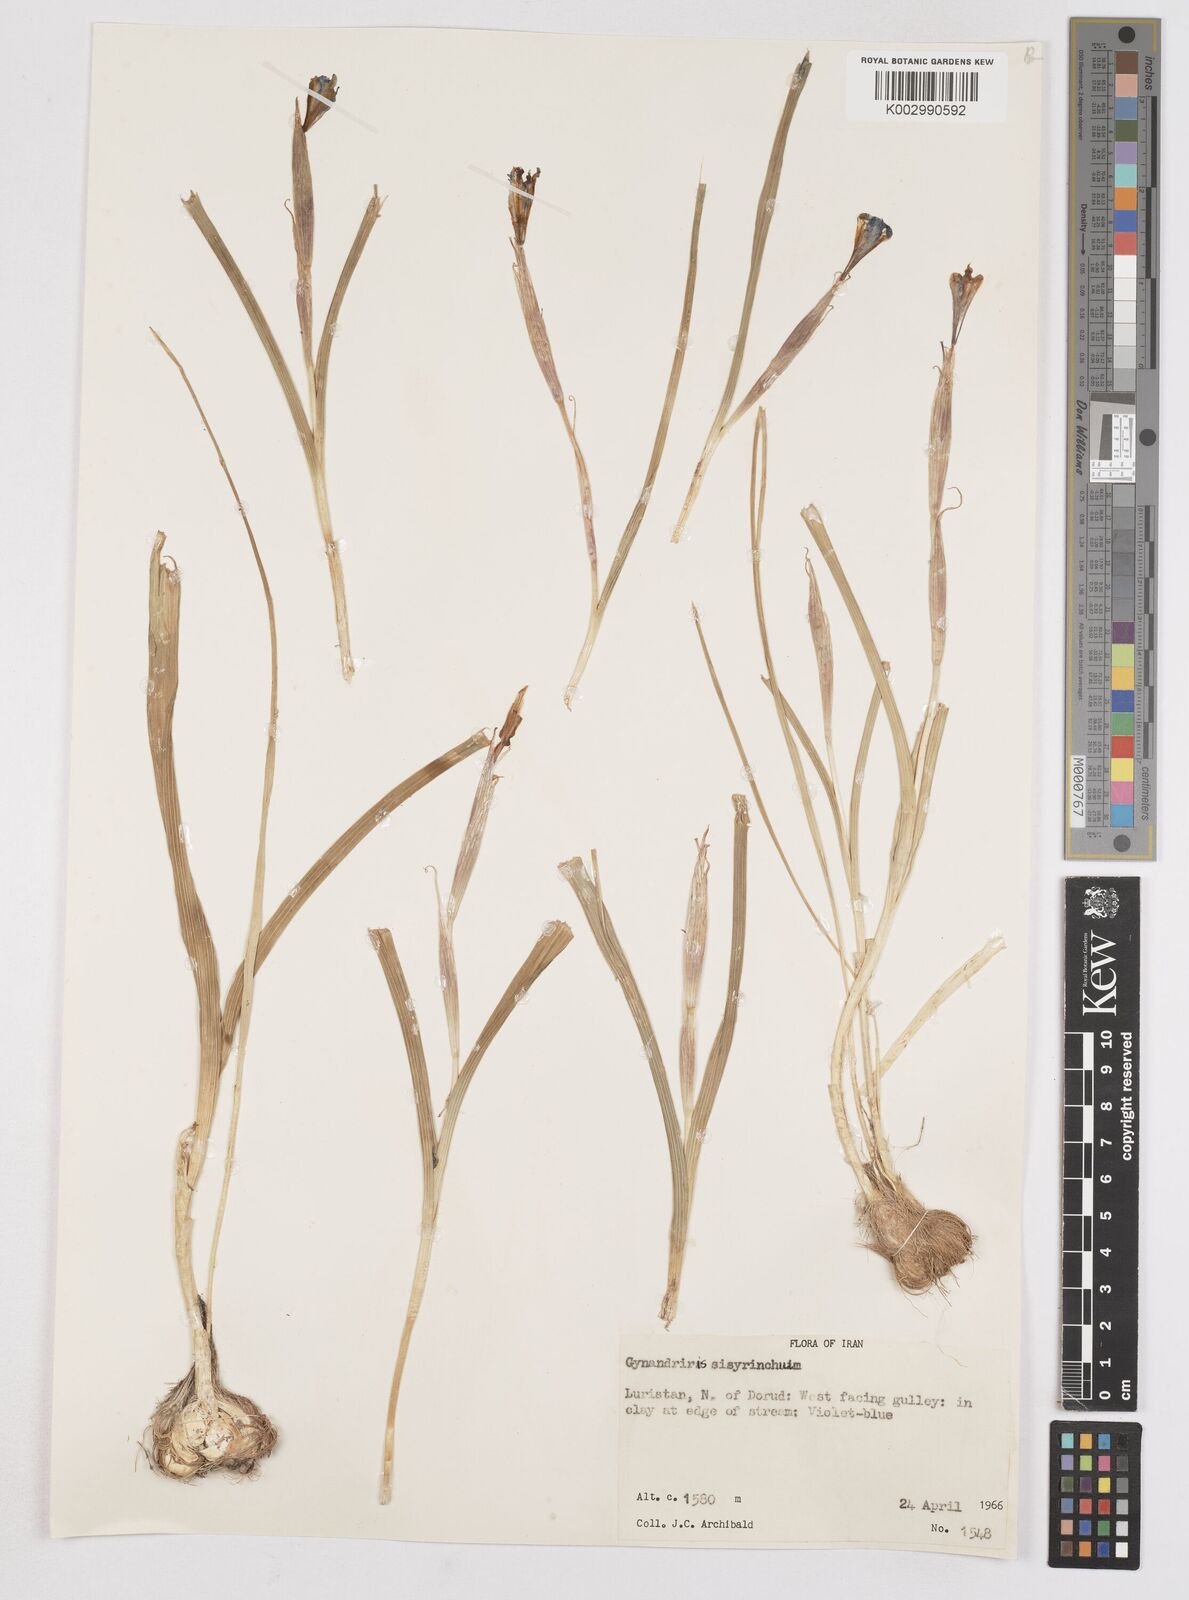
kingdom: Plantae
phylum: Tracheophyta
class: Liliopsida
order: Asparagales
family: Iridaceae
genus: Moraea
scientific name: Moraea sisyrinchium
